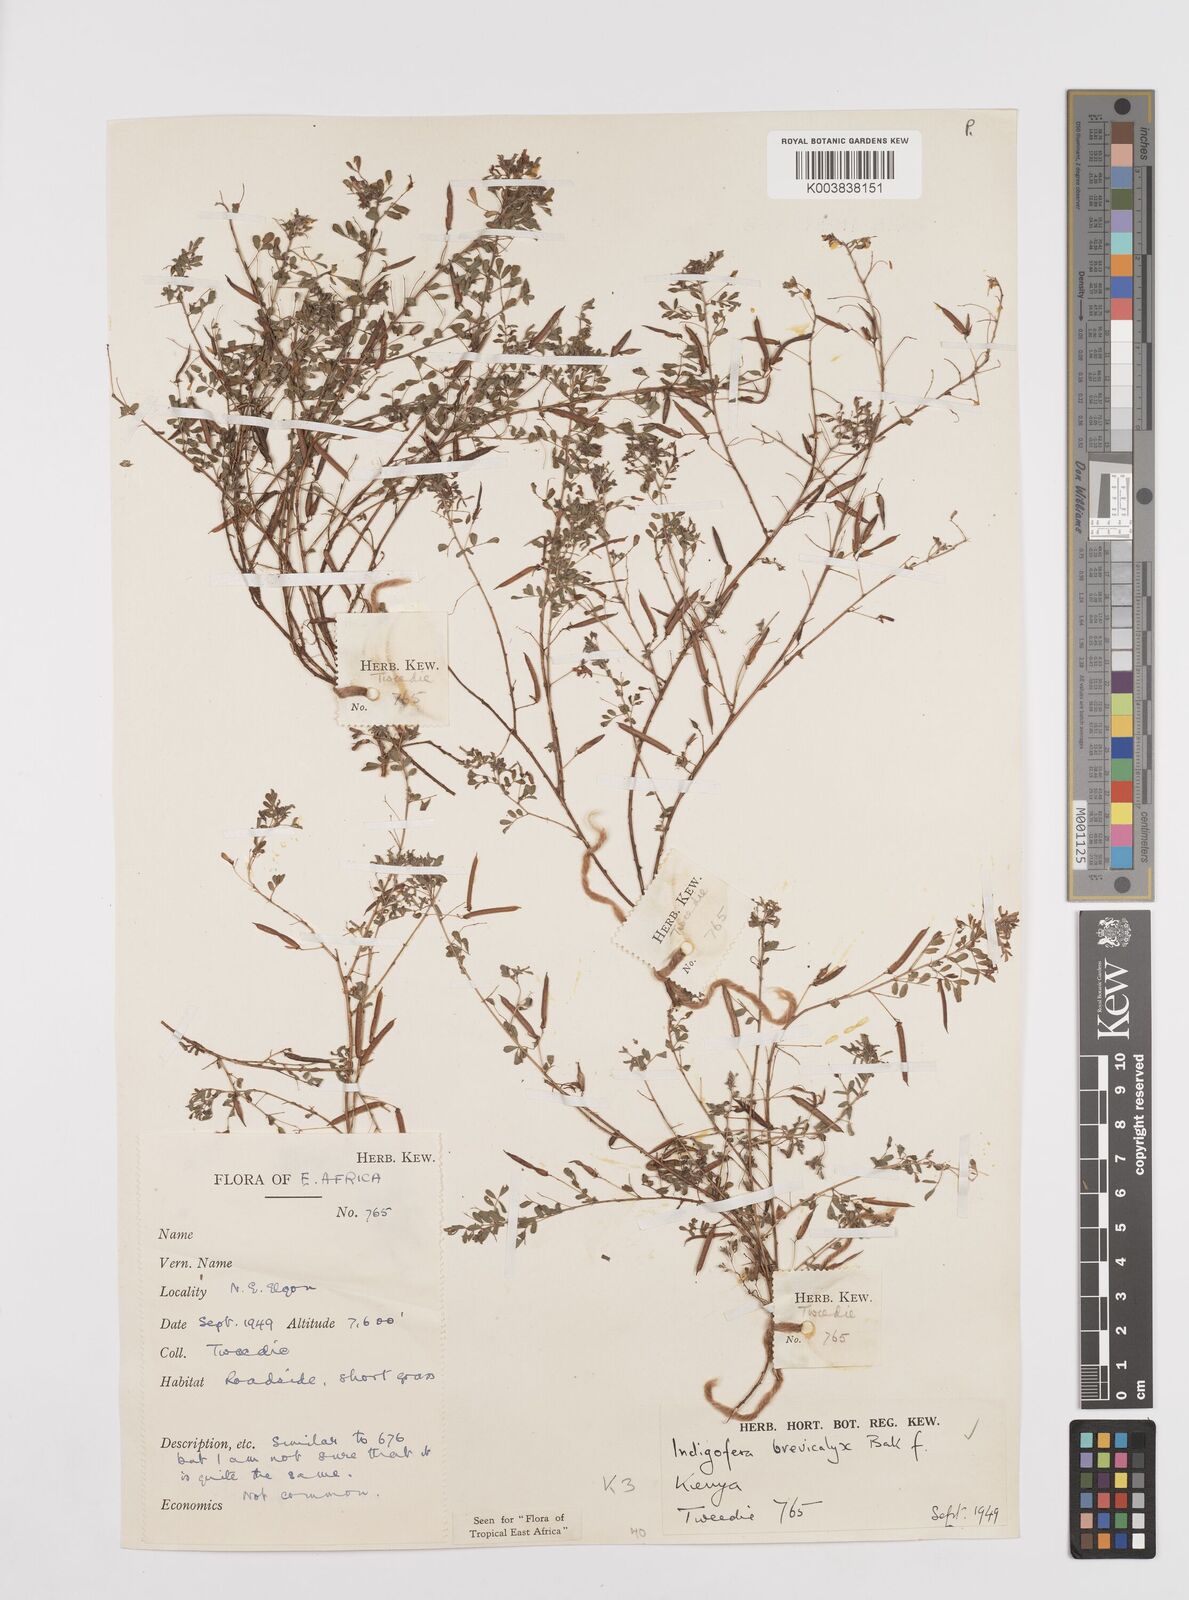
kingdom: Plantae
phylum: Tracheophyta
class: Magnoliopsida
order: Fabales
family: Fabaceae
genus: Indigofera
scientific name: Indigofera brevicalyx
